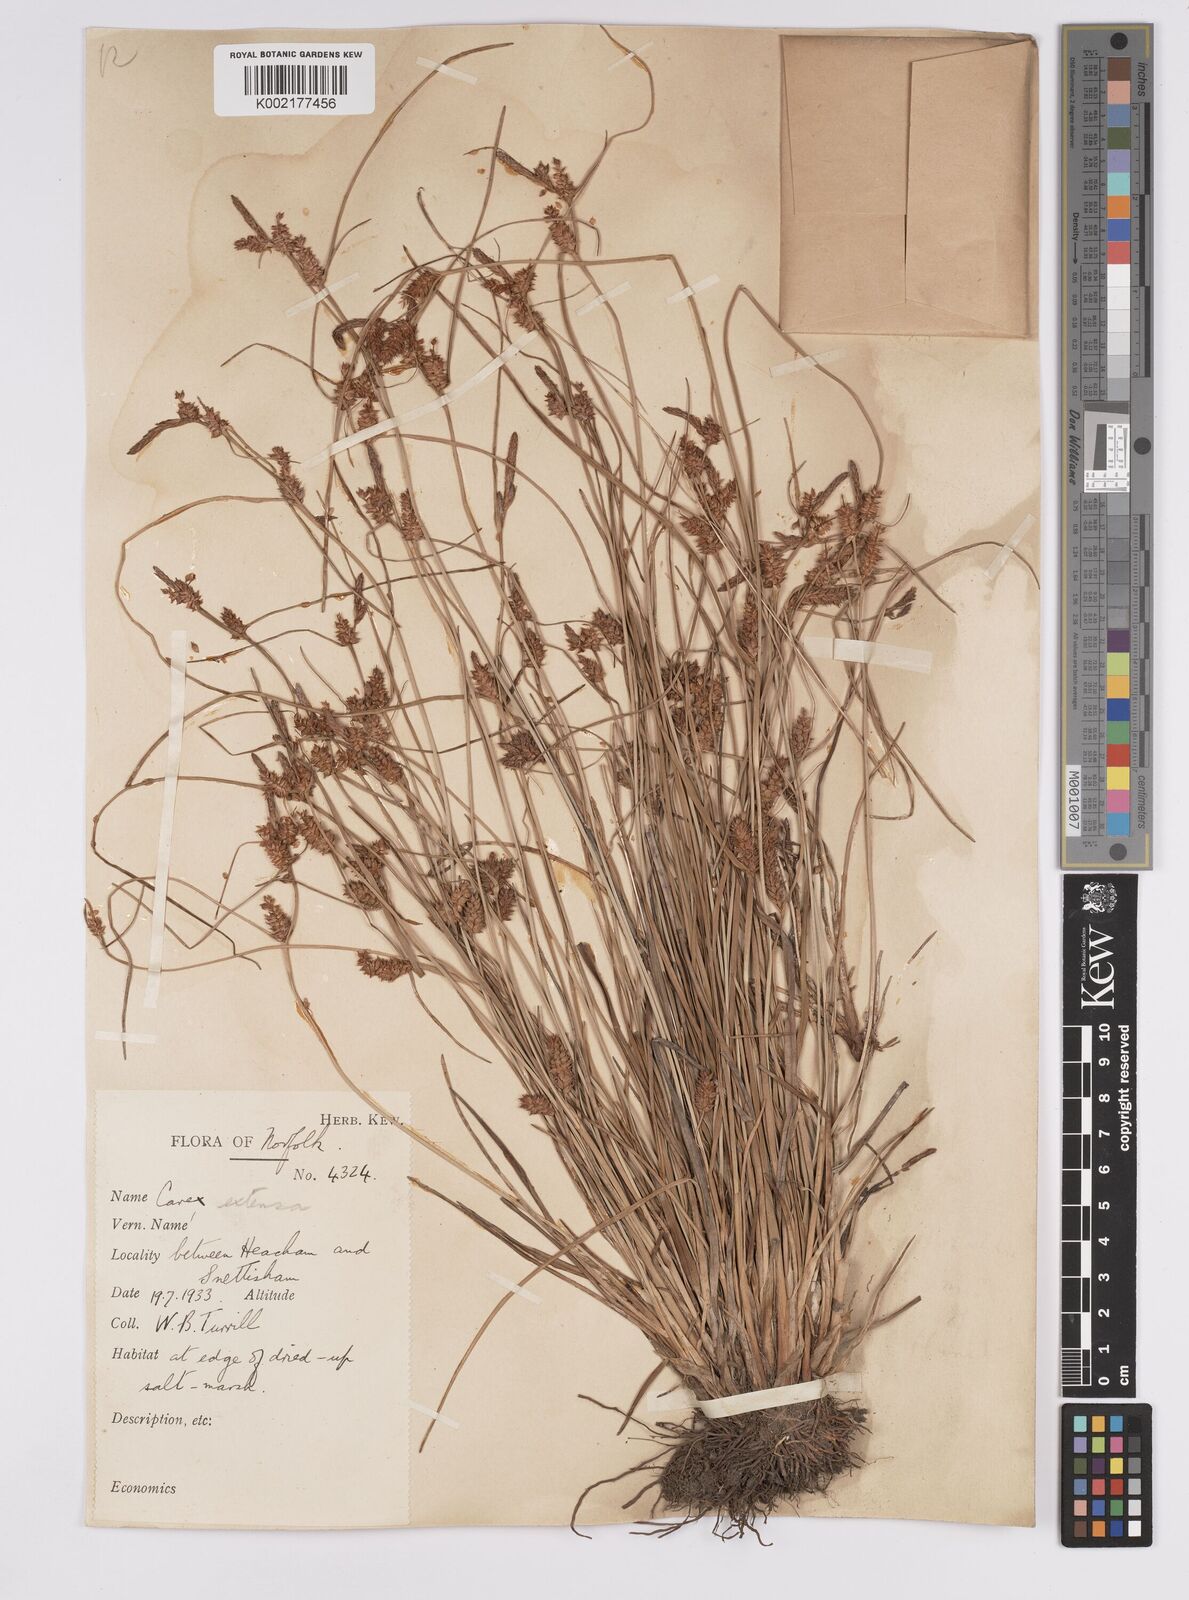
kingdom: Plantae
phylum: Tracheophyta
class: Liliopsida
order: Poales
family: Cyperaceae
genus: Carex
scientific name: Carex extensa
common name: Long-bracted sedge
